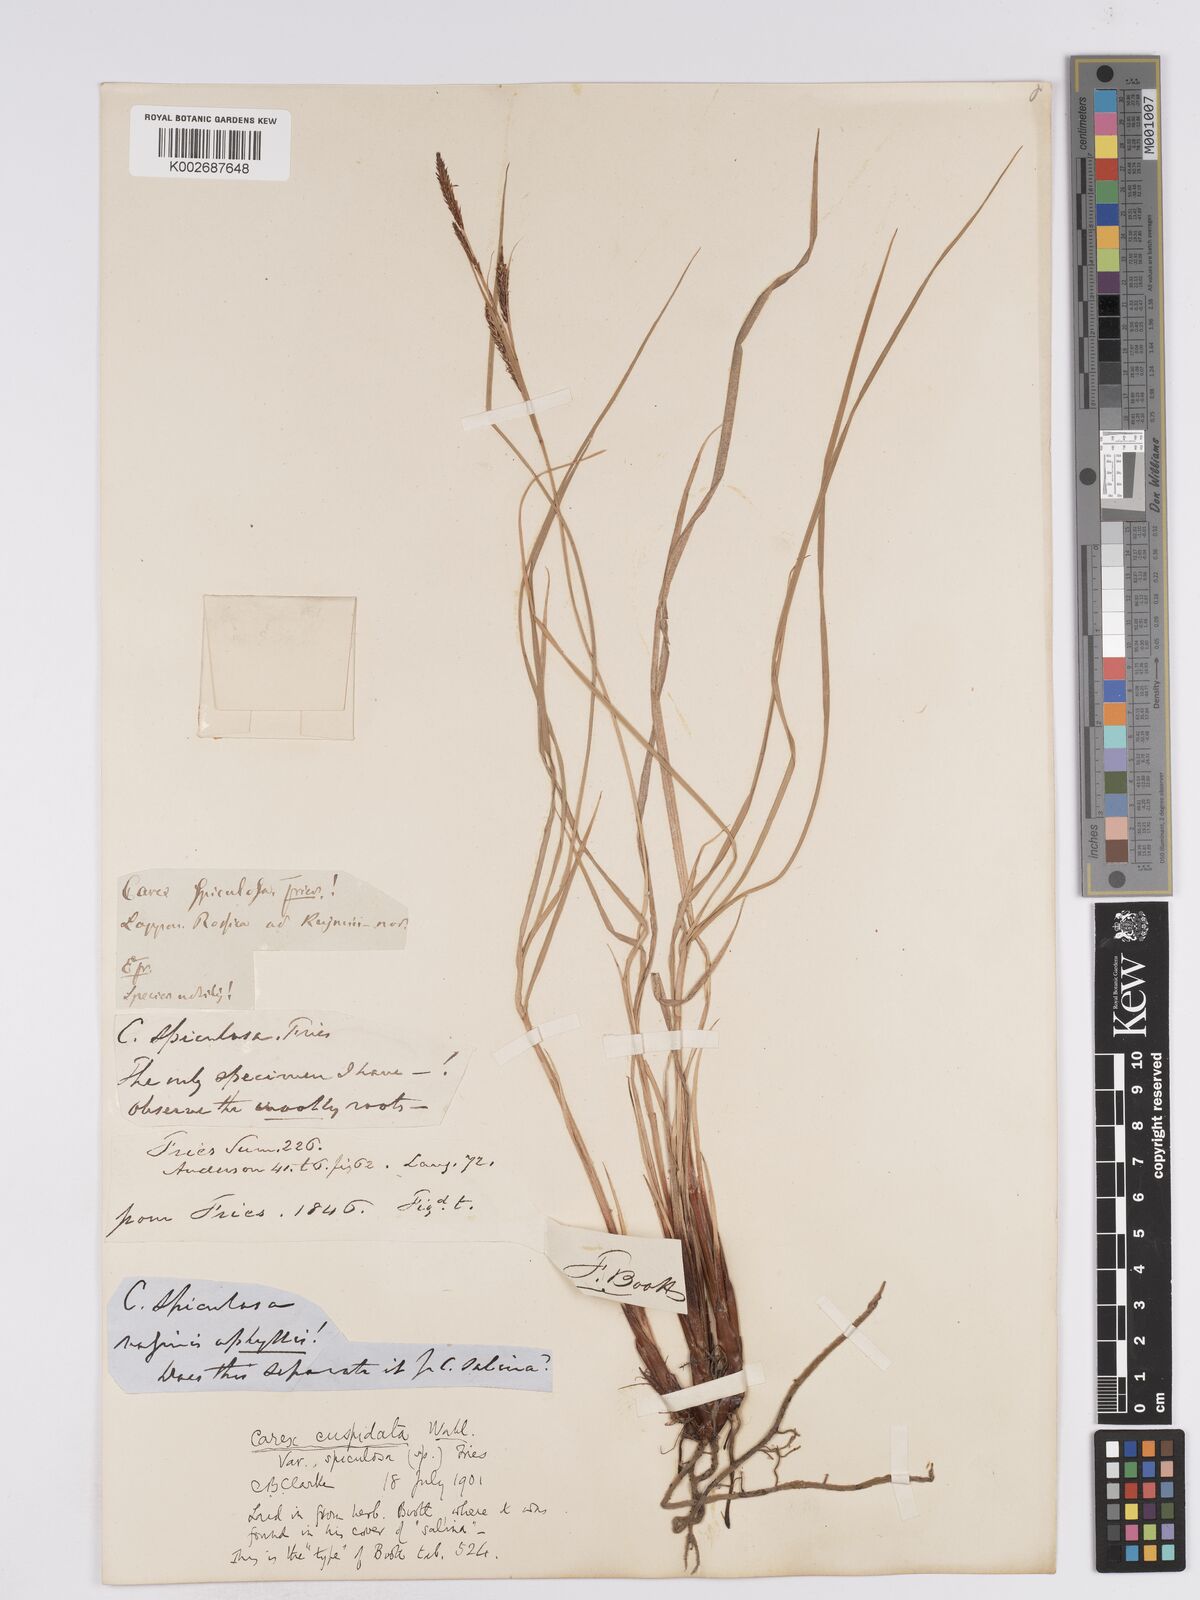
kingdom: Plantae
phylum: Tracheophyta
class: Liliopsida
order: Poales
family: Cyperaceae
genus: Carex
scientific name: Carex nigra
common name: Common sedge
